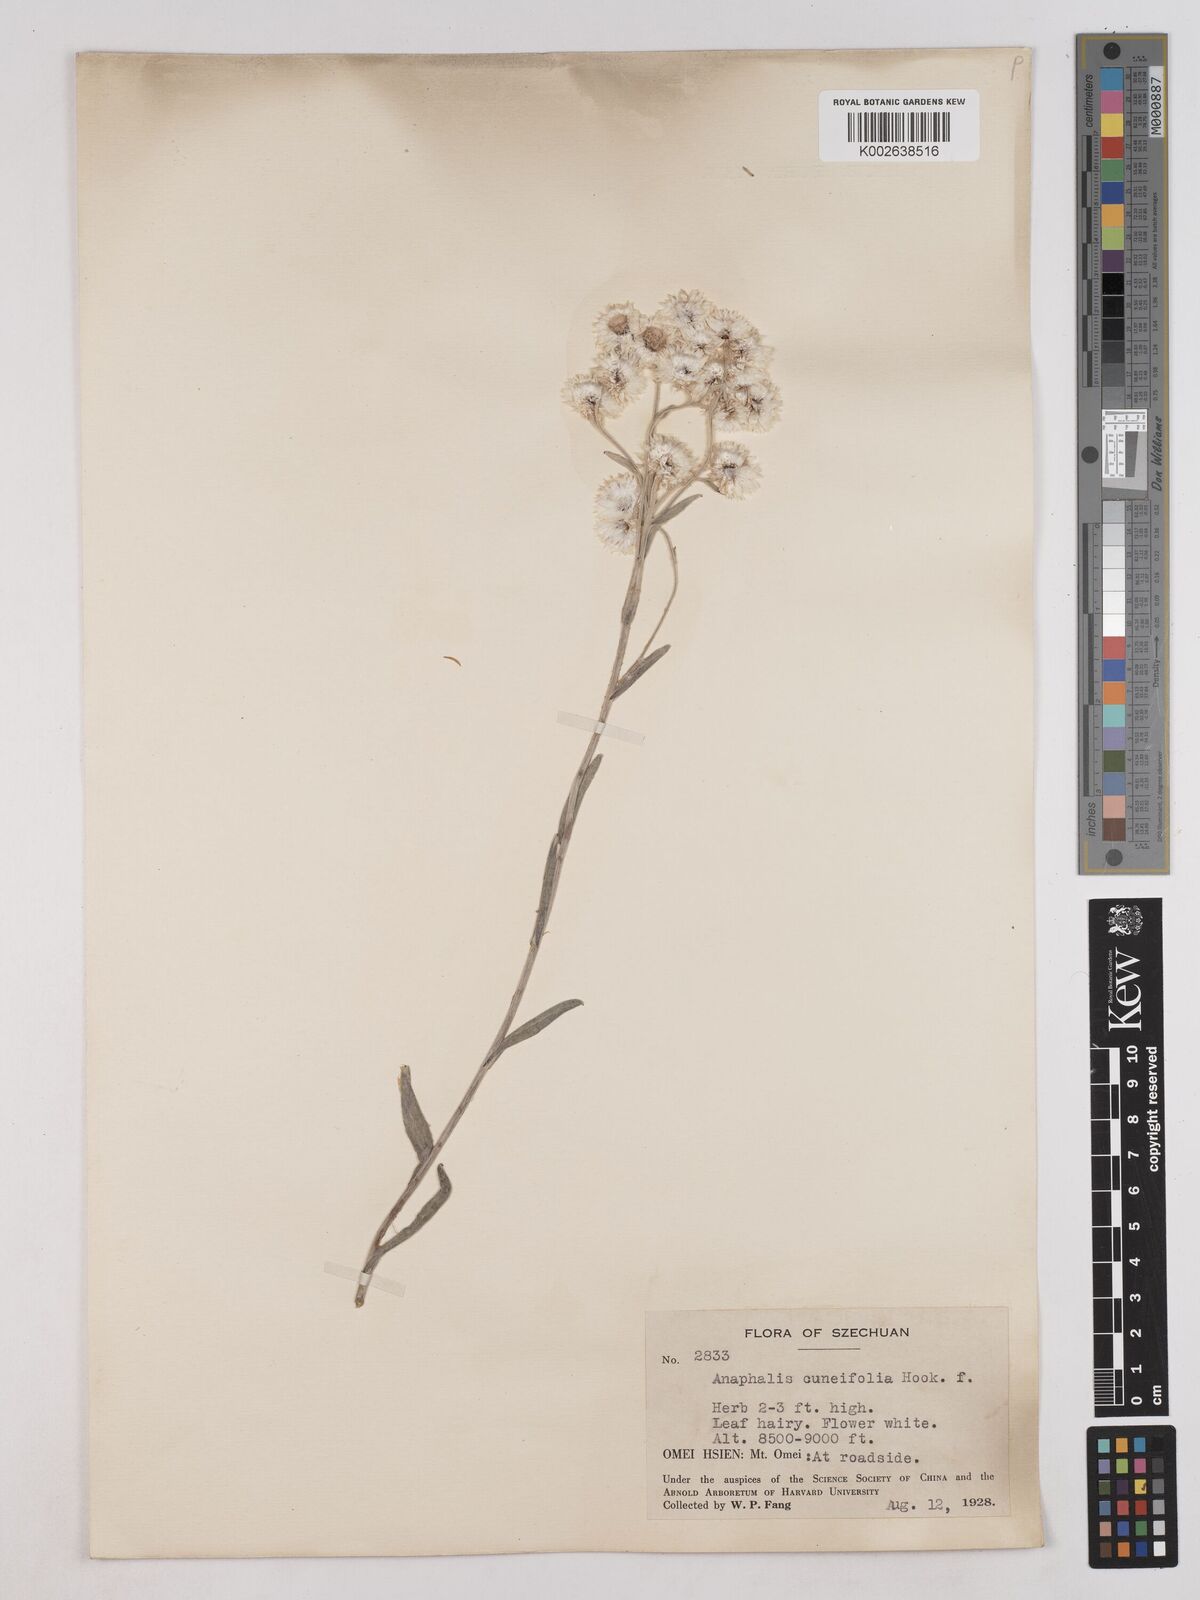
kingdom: Plantae
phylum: Tracheophyta
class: Magnoliopsida
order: Asterales
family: Asteraceae
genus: Anaphalis
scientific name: Anaphalis nepalensis
